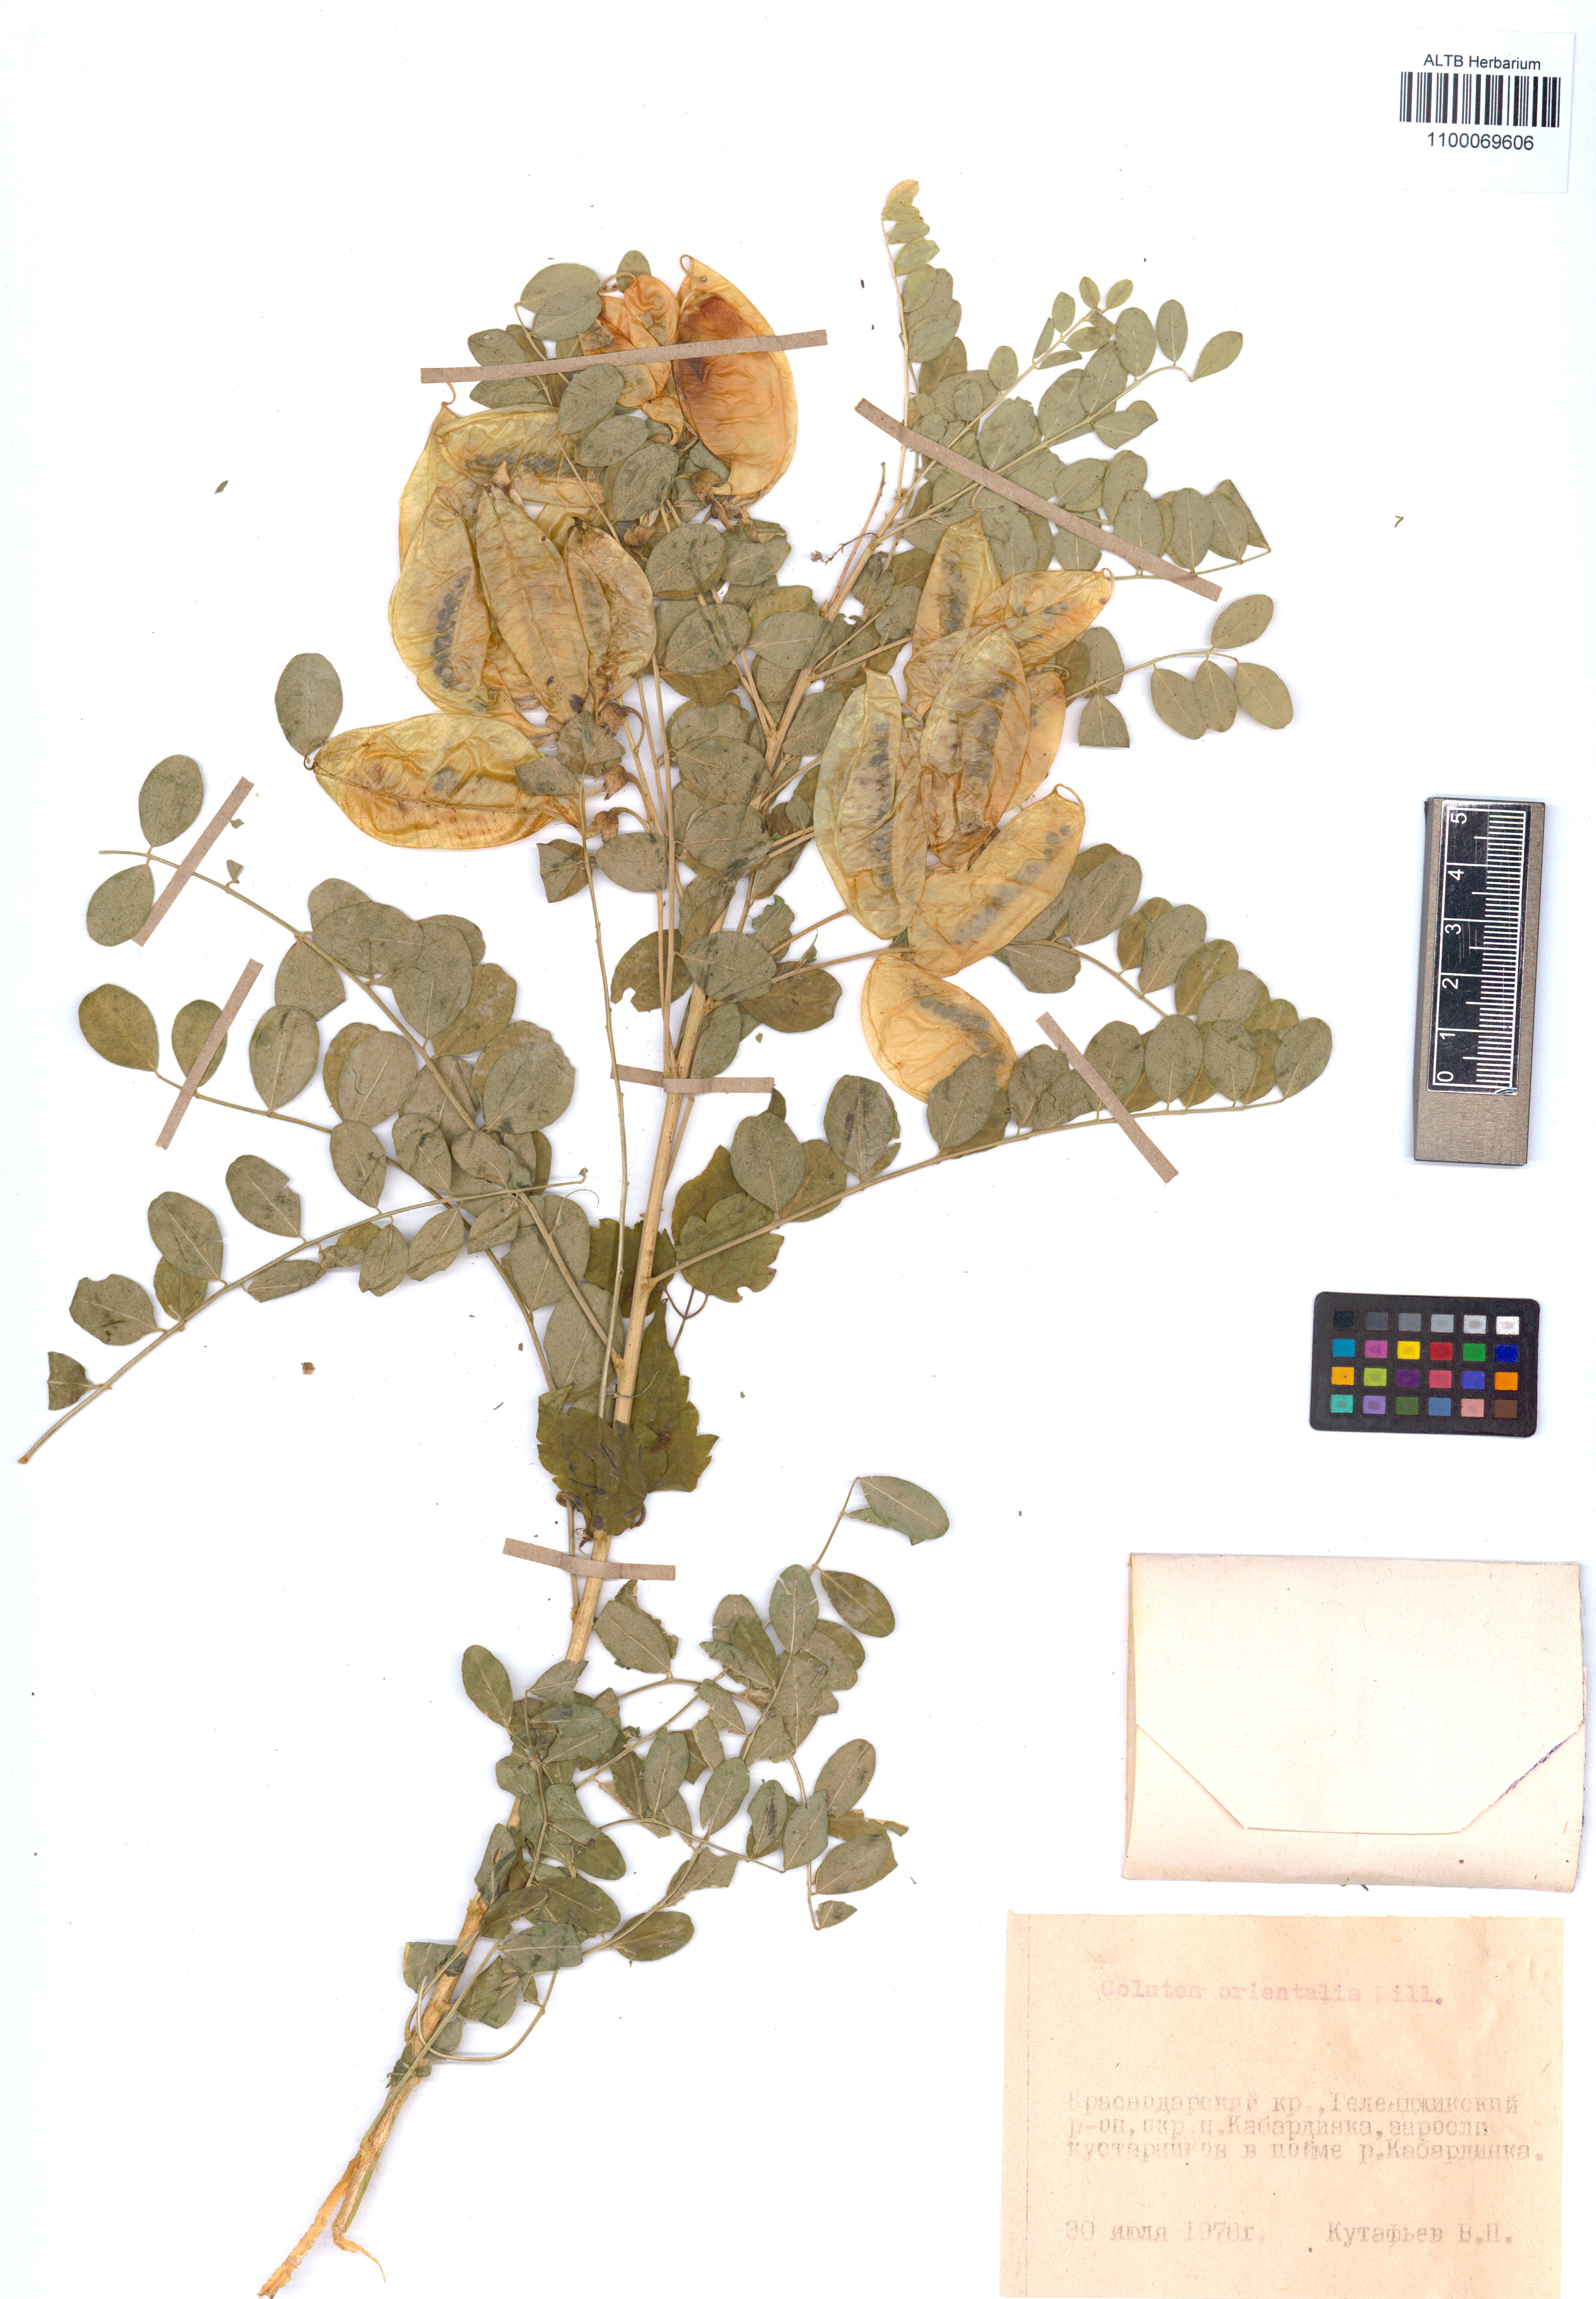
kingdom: Plantae
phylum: Tracheophyta
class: Magnoliopsida
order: Fabales
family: Fabaceae
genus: Colutea
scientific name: Colutea orientalis
